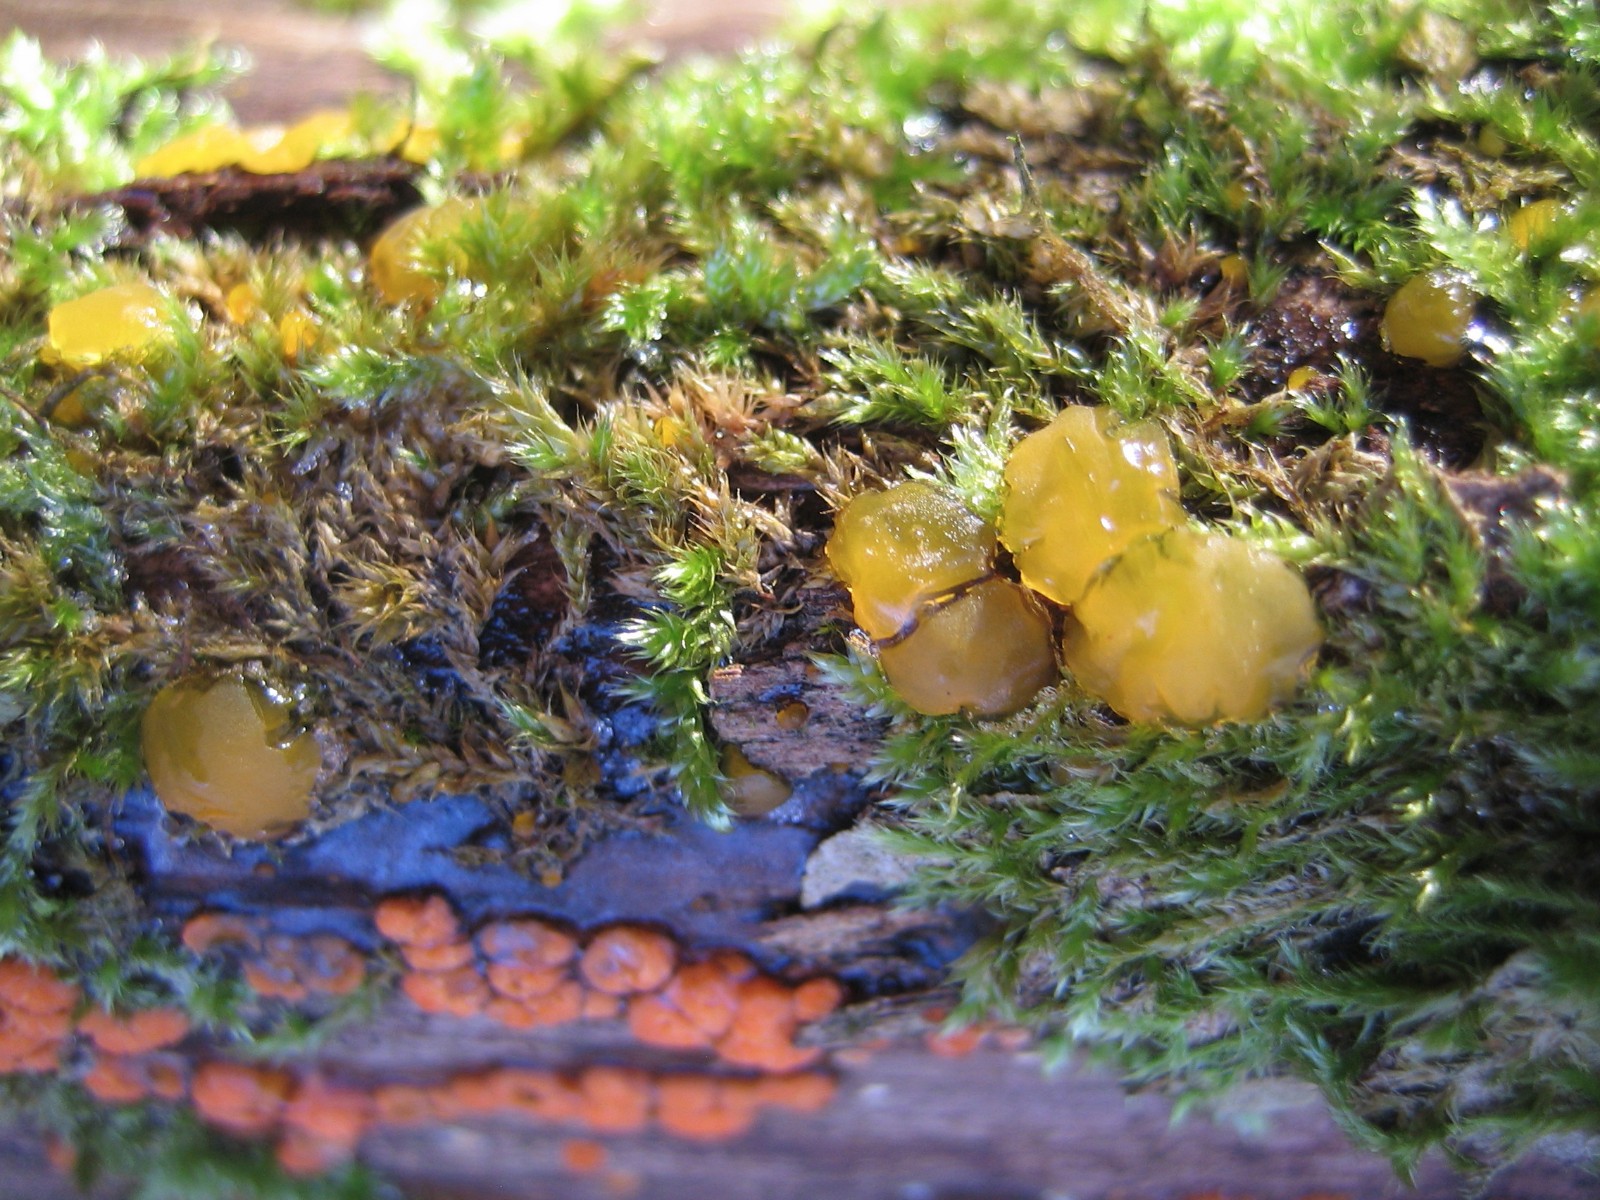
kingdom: Fungi
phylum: Basidiomycota
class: Dacrymycetes
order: Dacrymycetales
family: Dacrymycetaceae
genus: Dacrymyces
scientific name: Dacrymyces lacrymalis
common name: rynket tåresvamp
